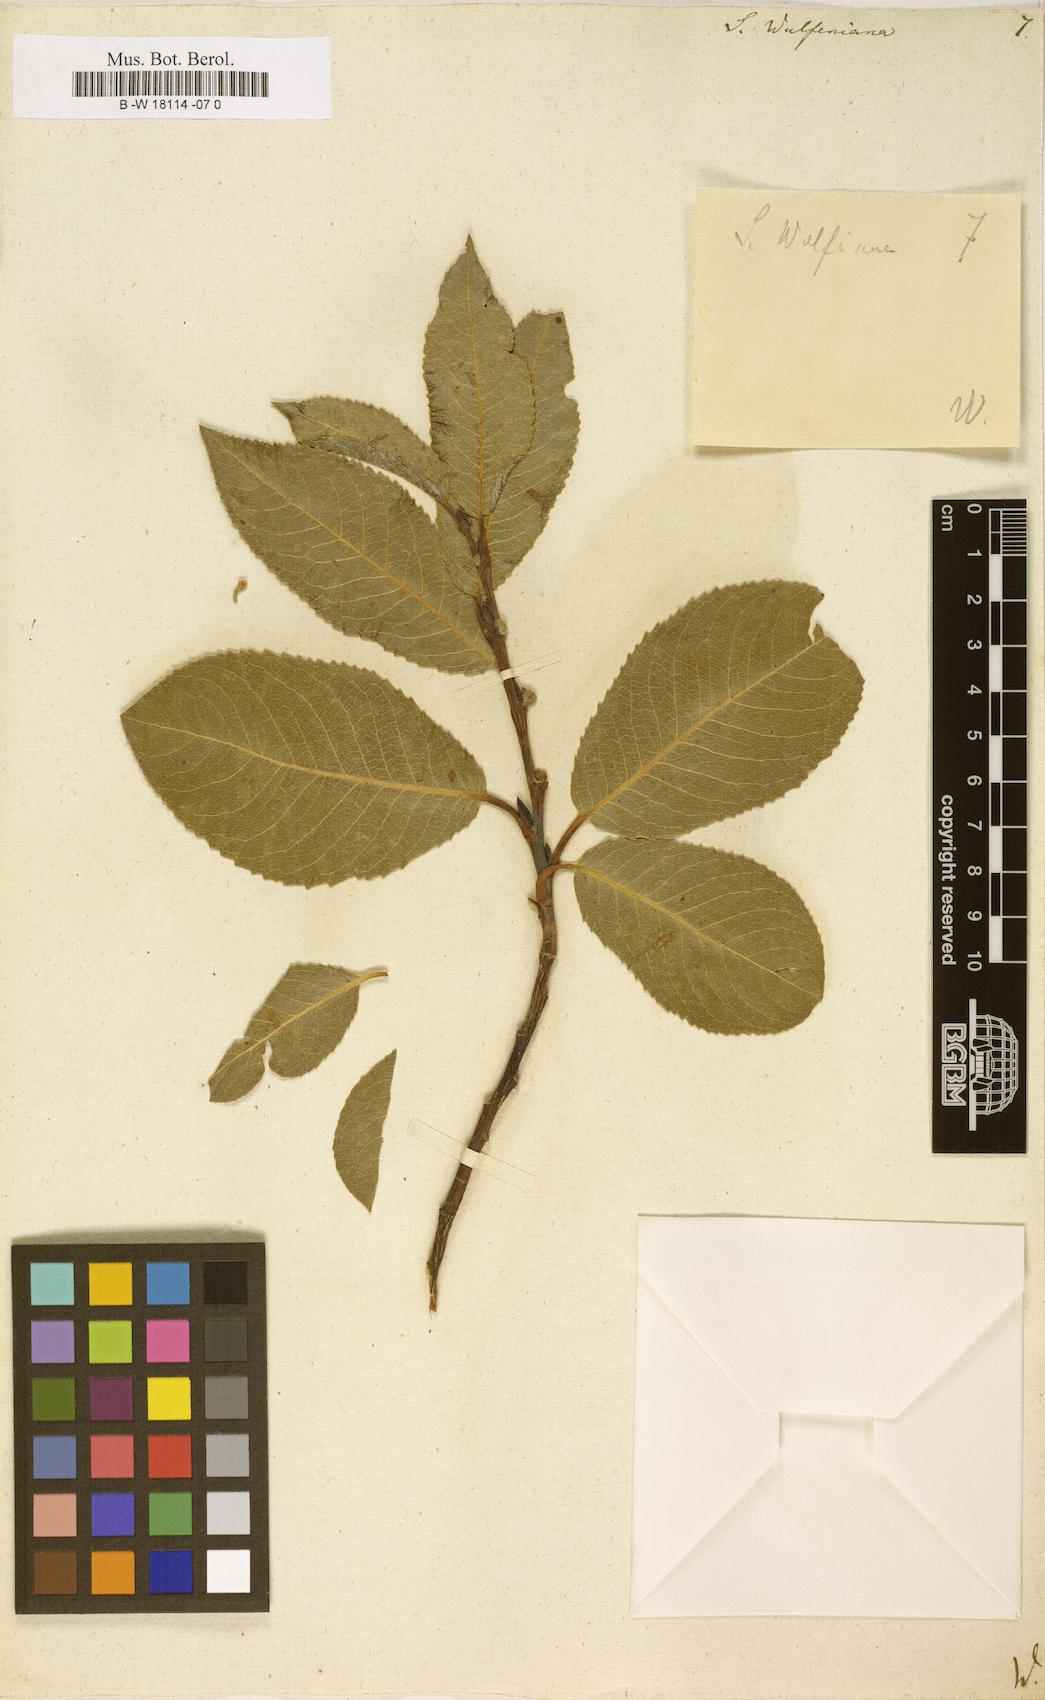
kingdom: Plantae
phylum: Tracheophyta
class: Magnoliopsida
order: Malpighiales
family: Salicaceae
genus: Salix
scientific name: Salix
